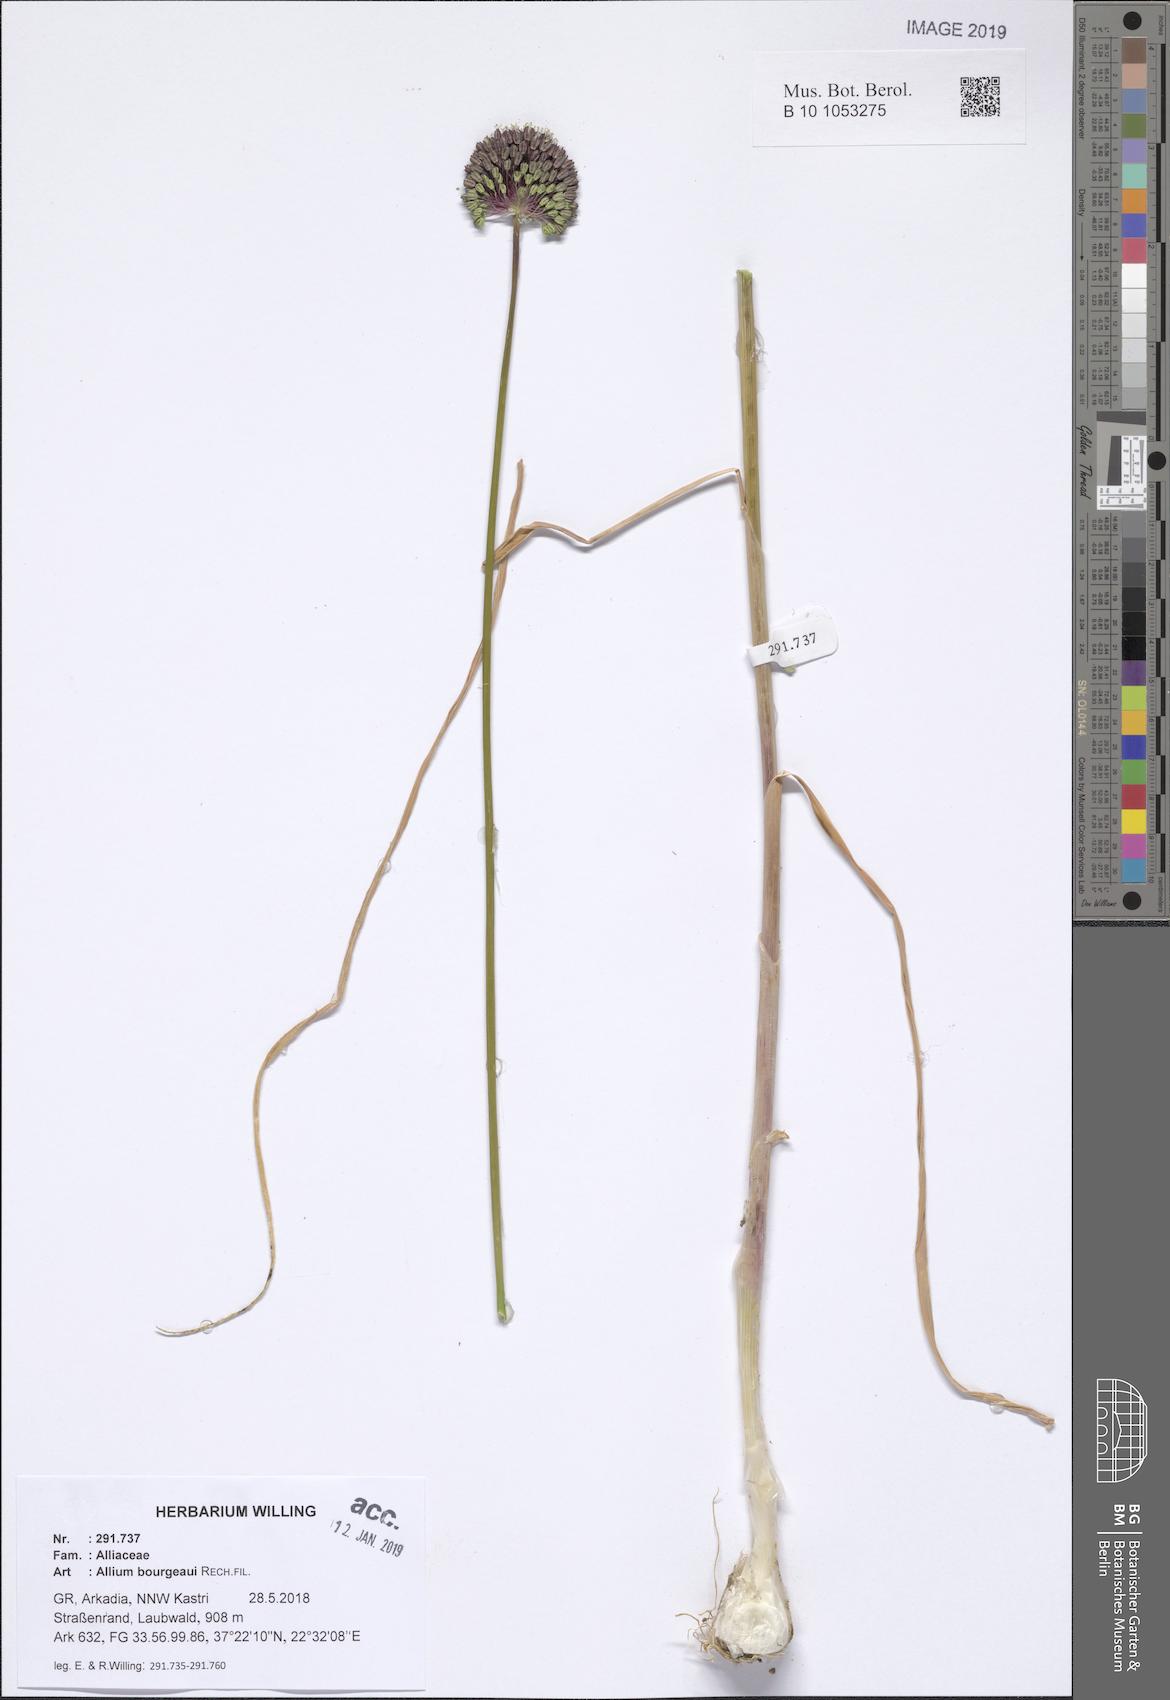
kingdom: Plantae
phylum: Tracheophyta
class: Liliopsida
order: Asparagales
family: Amaryllidaceae
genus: Allium
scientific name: Allium bourgeaui
